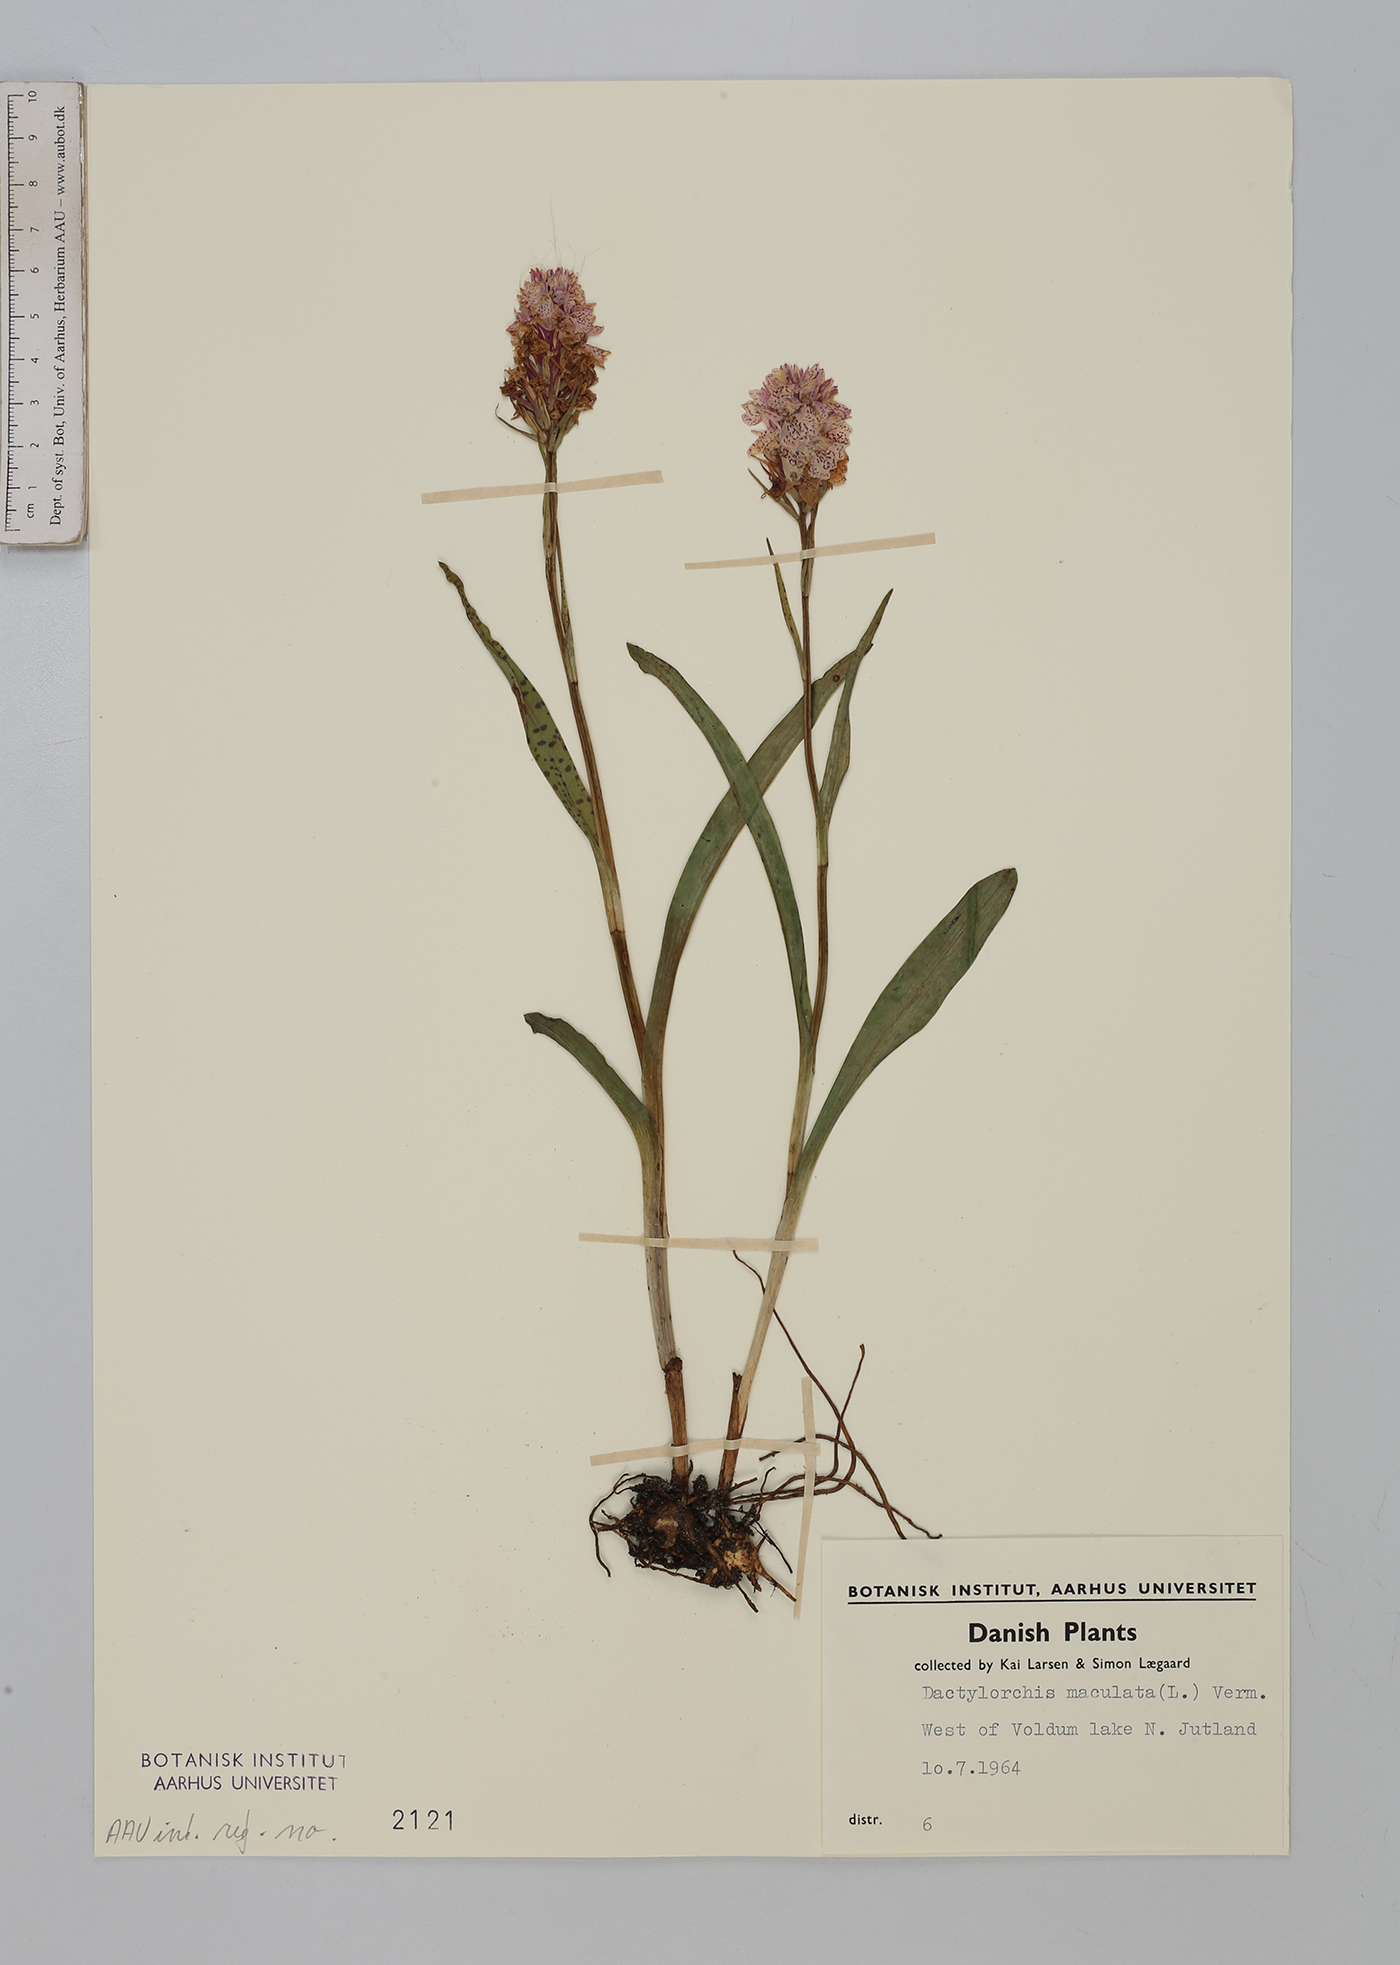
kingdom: Plantae
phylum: Tracheophyta
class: Liliopsida
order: Asparagales
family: Orchidaceae
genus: Dactylorhiza
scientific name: Dactylorhiza maculata
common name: Heath spotted-orchid
